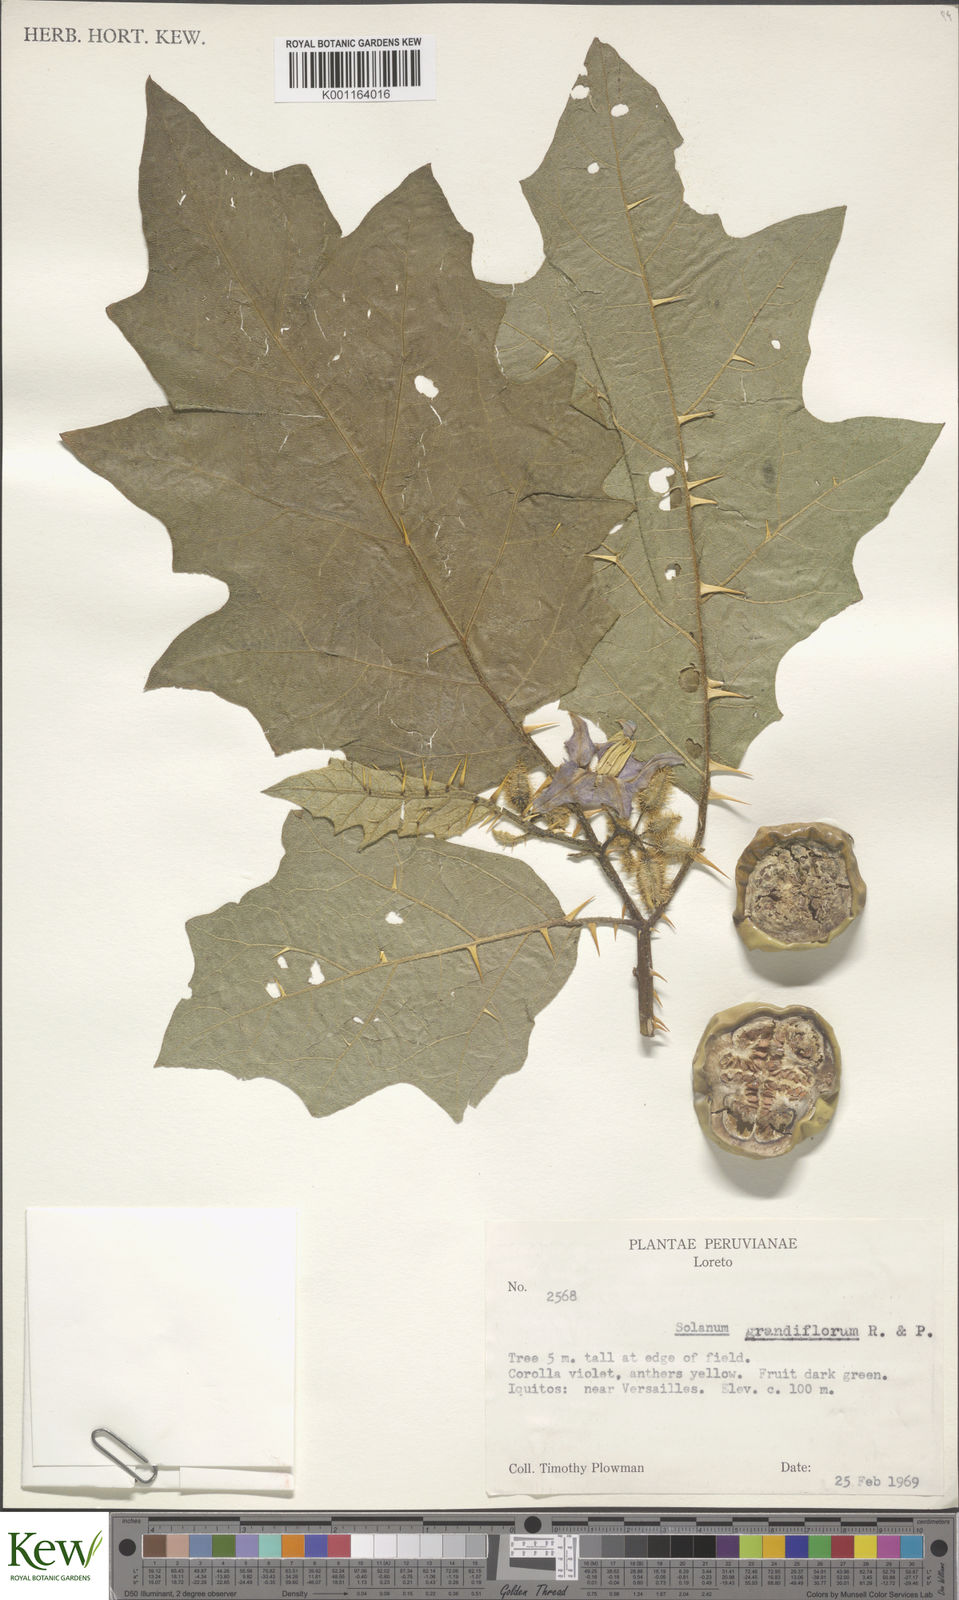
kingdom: Plantae
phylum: Tracheophyta
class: Magnoliopsida
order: Solanales
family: Solanaceae
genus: Solanum
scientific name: Solanum grandiflorum
